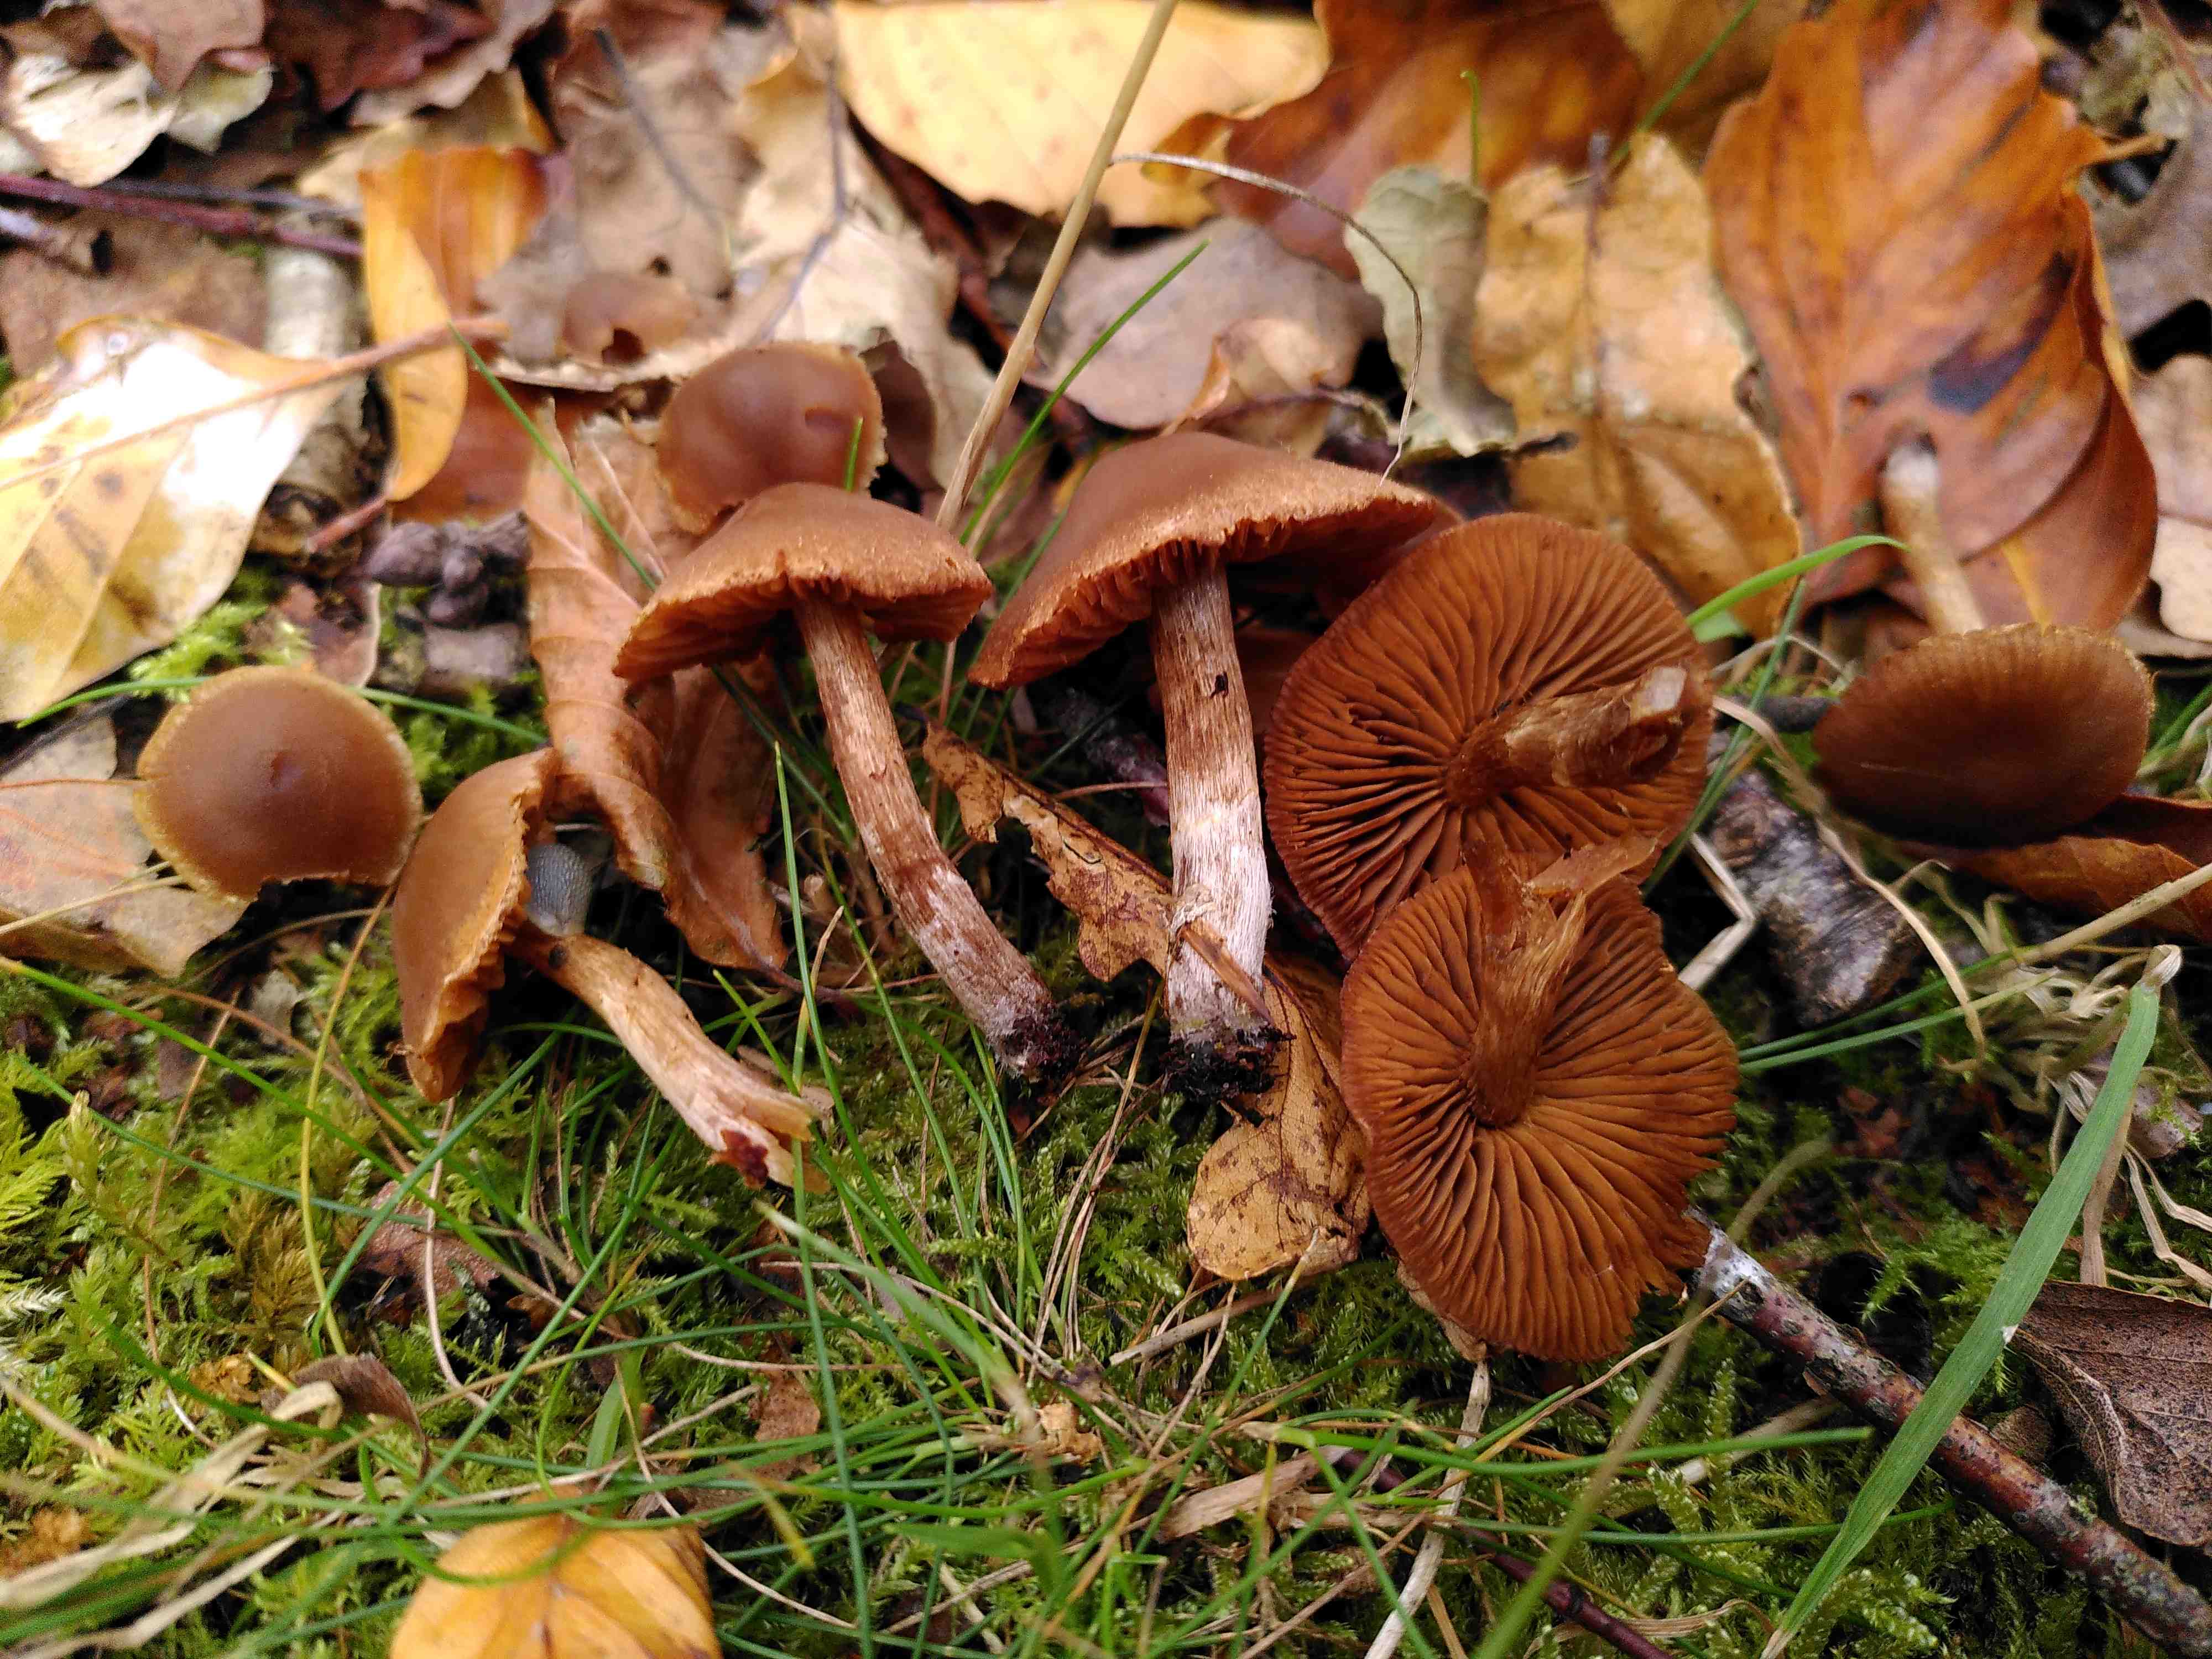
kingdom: Fungi
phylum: Basidiomycota
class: Agaricomycetes
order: Agaricales
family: Cortinariaceae
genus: Cortinarius
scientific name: Cortinarius
